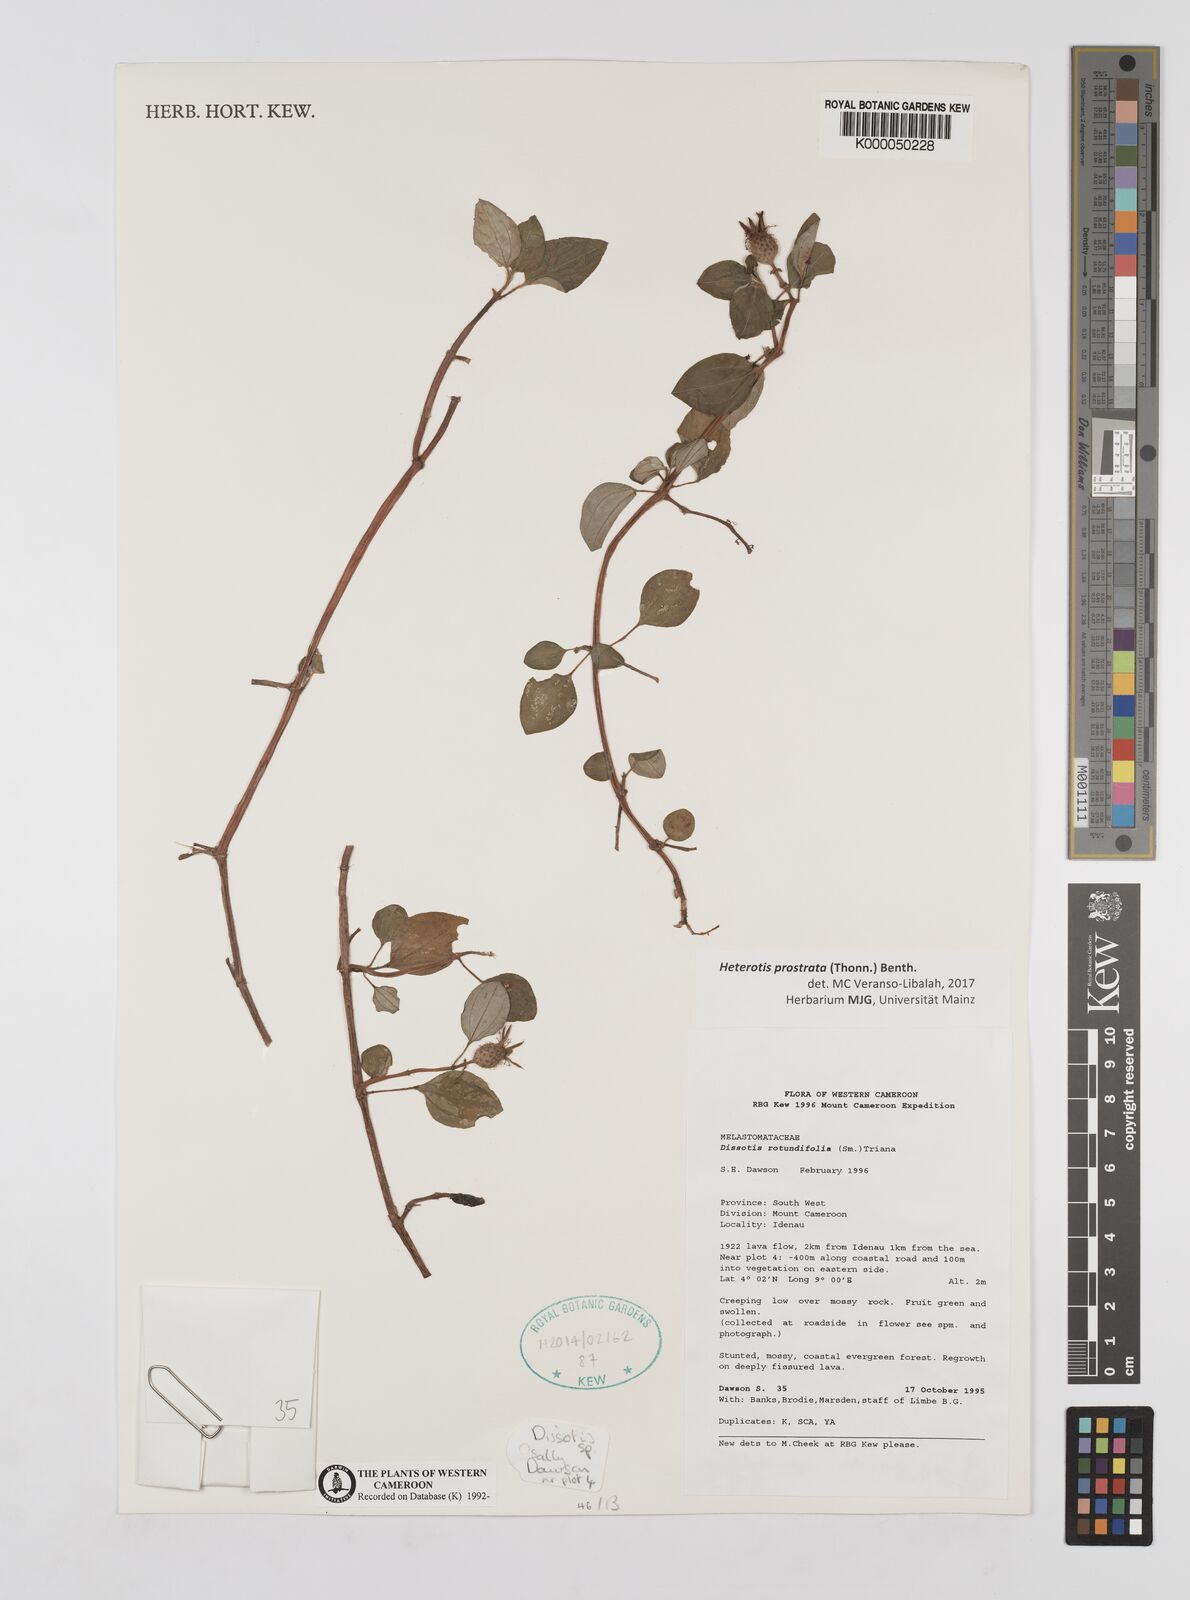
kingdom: Plantae
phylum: Tracheophyta
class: Magnoliopsida
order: Myrtales
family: Melastomataceae
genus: Heterotis
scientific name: Heterotis rotundifolia
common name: Pinklady
